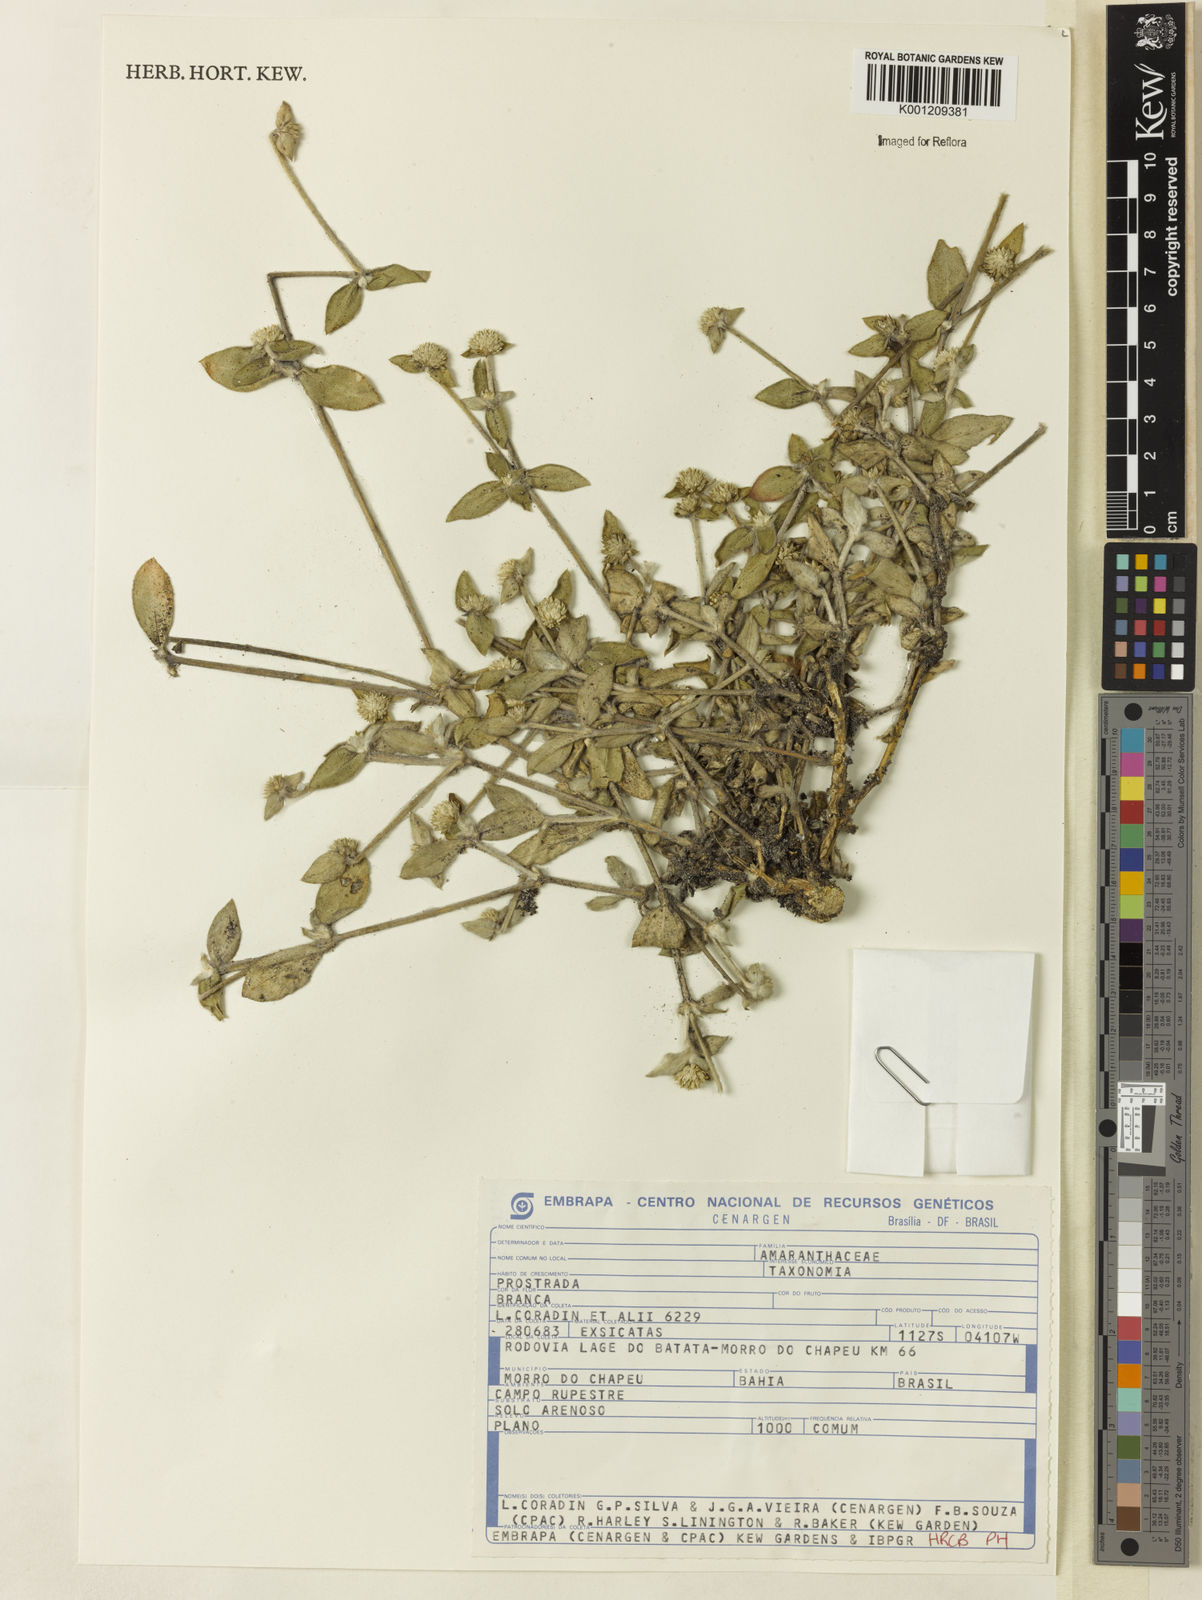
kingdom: Plantae
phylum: Tracheophyta
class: Magnoliopsida
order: Caryophyllales
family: Amaranthaceae
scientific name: Amaranthaceae
